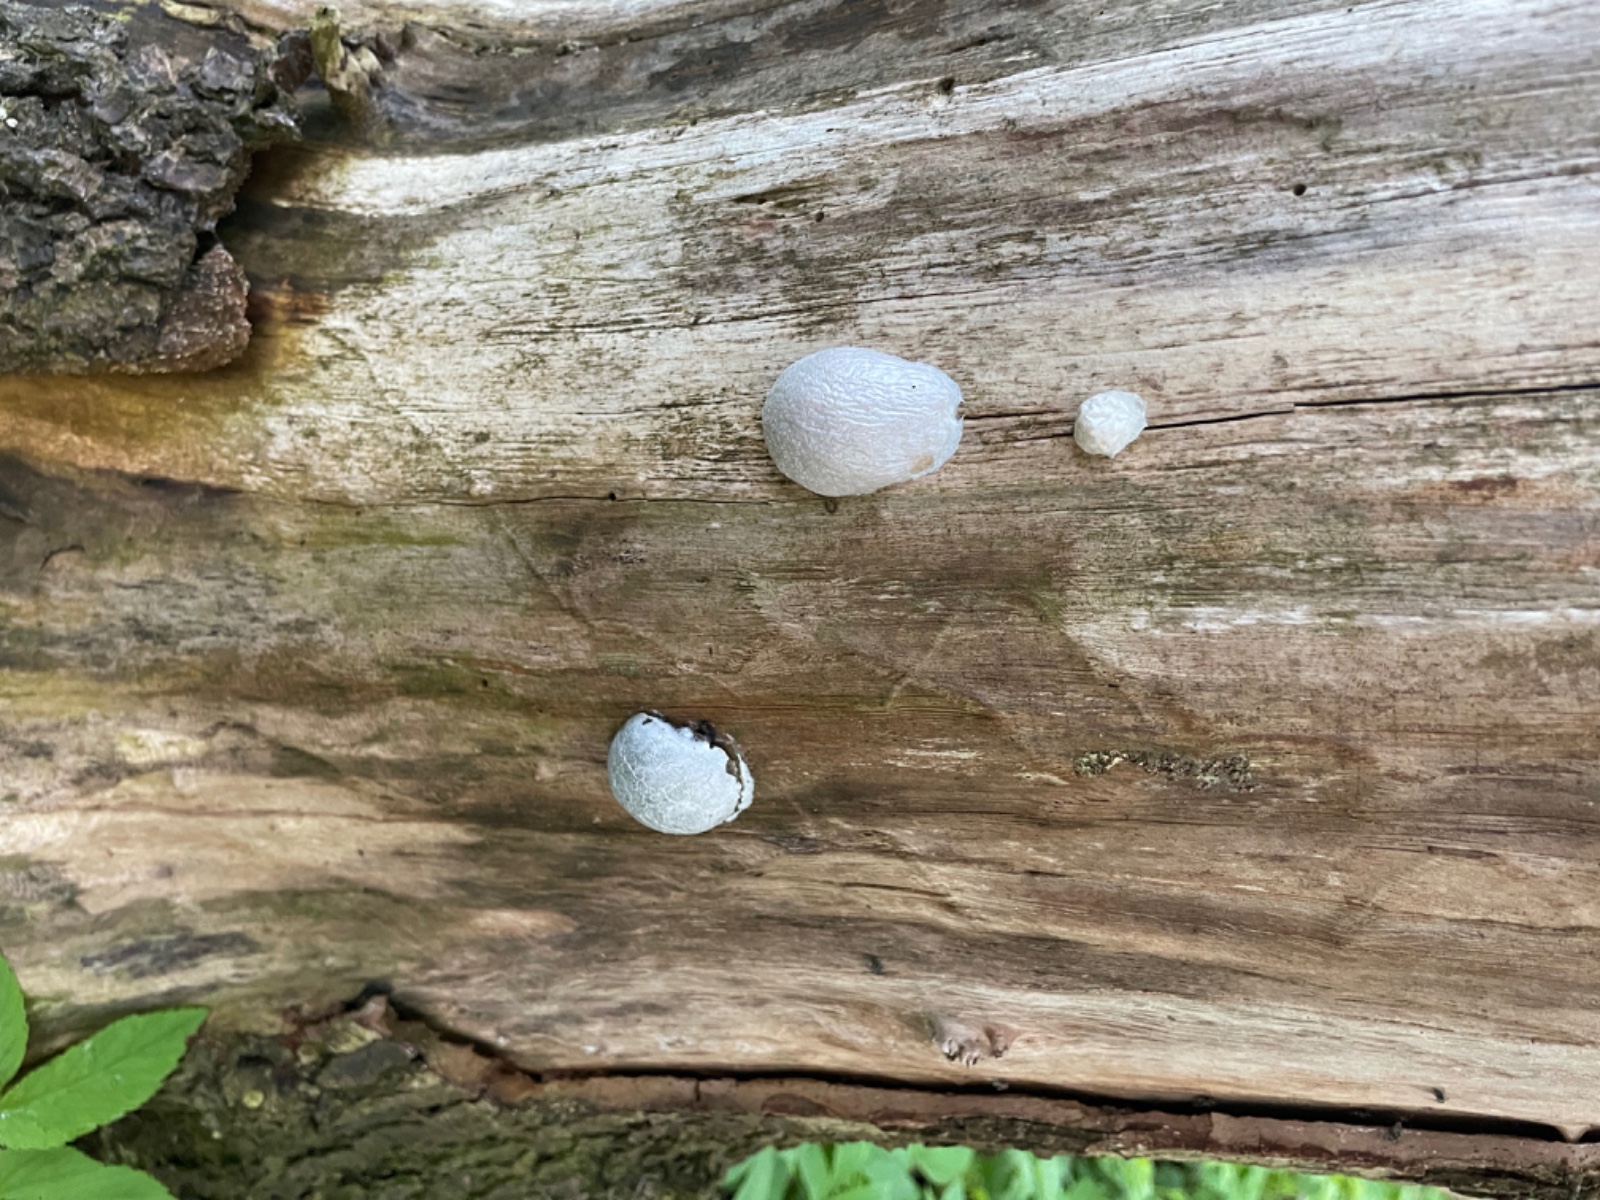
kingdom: Protozoa
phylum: Mycetozoa
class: Myxomycetes
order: Cribrariales
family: Tubiferaceae
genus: Reticularia
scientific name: Reticularia lycoperdon
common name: skinnende støvpude
